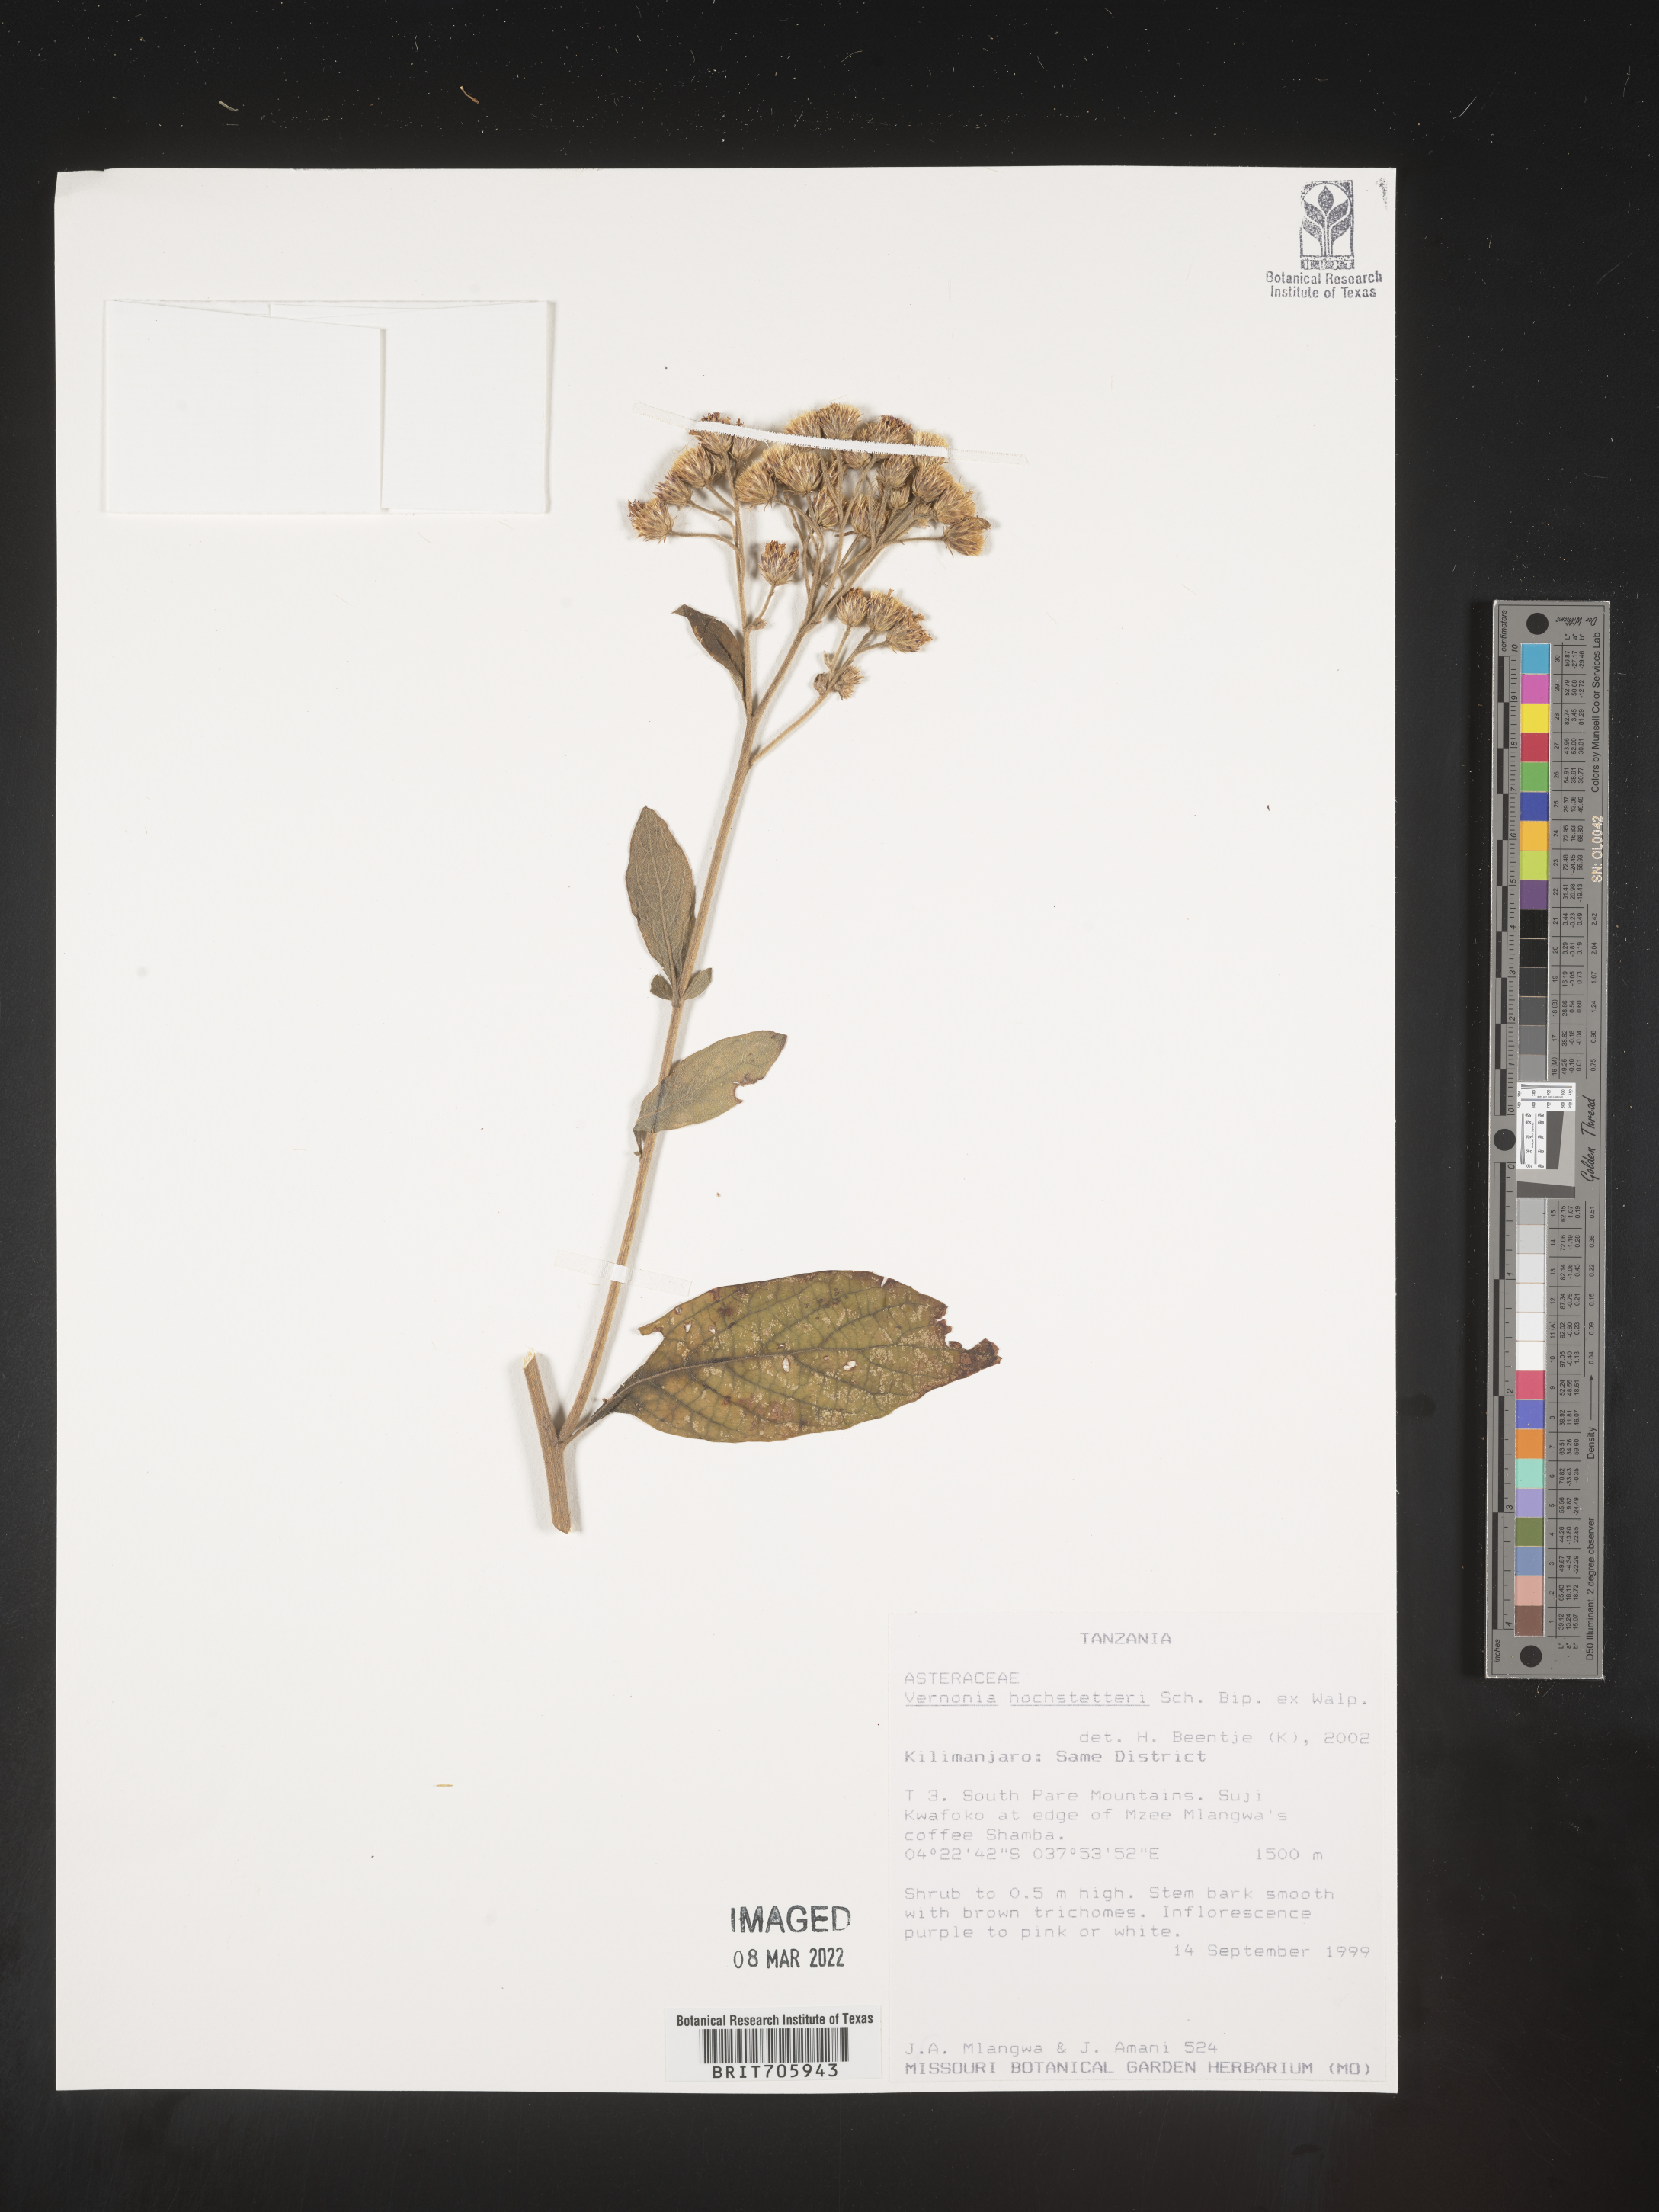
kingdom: Plantae
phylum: Tracheophyta
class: Magnoliopsida
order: Asterales
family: Asteraceae
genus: Vernonia
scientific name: Vernonia
